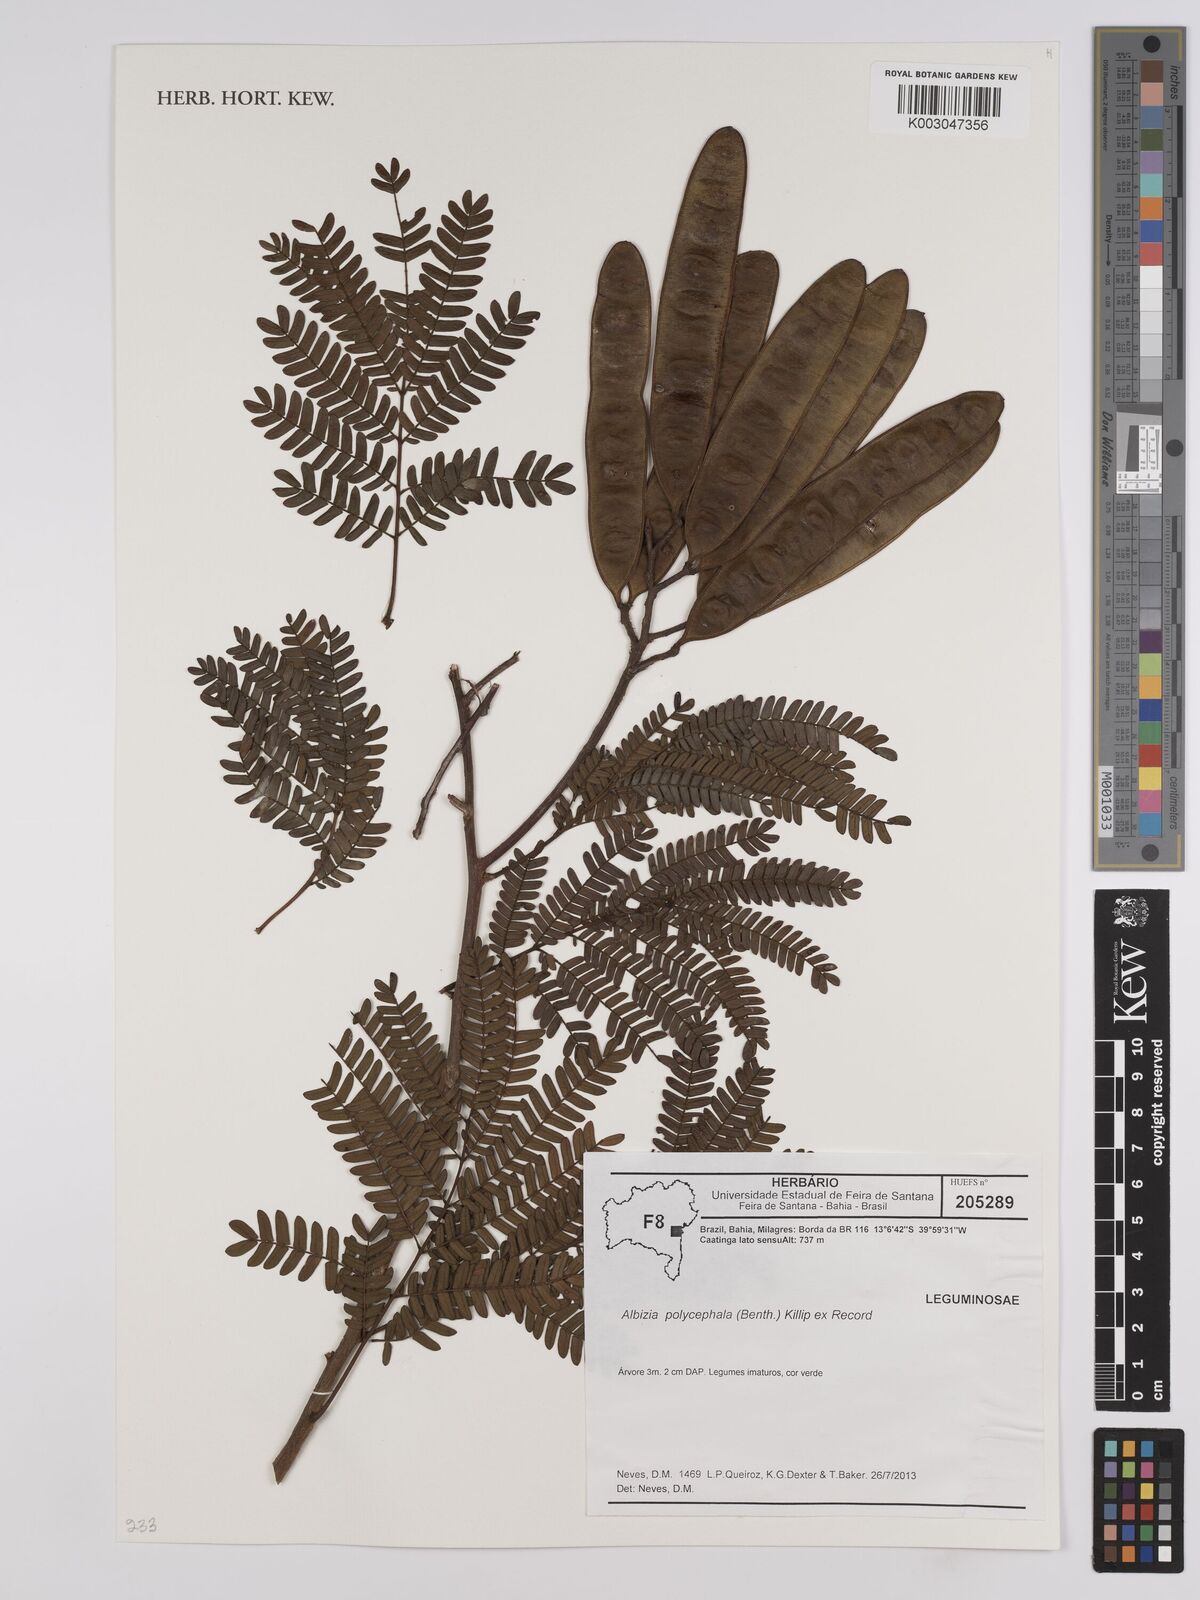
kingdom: Plantae
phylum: Tracheophyta
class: Magnoliopsida
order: Fabales
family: Fabaceae
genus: Albizia
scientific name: Albizia polycephala
